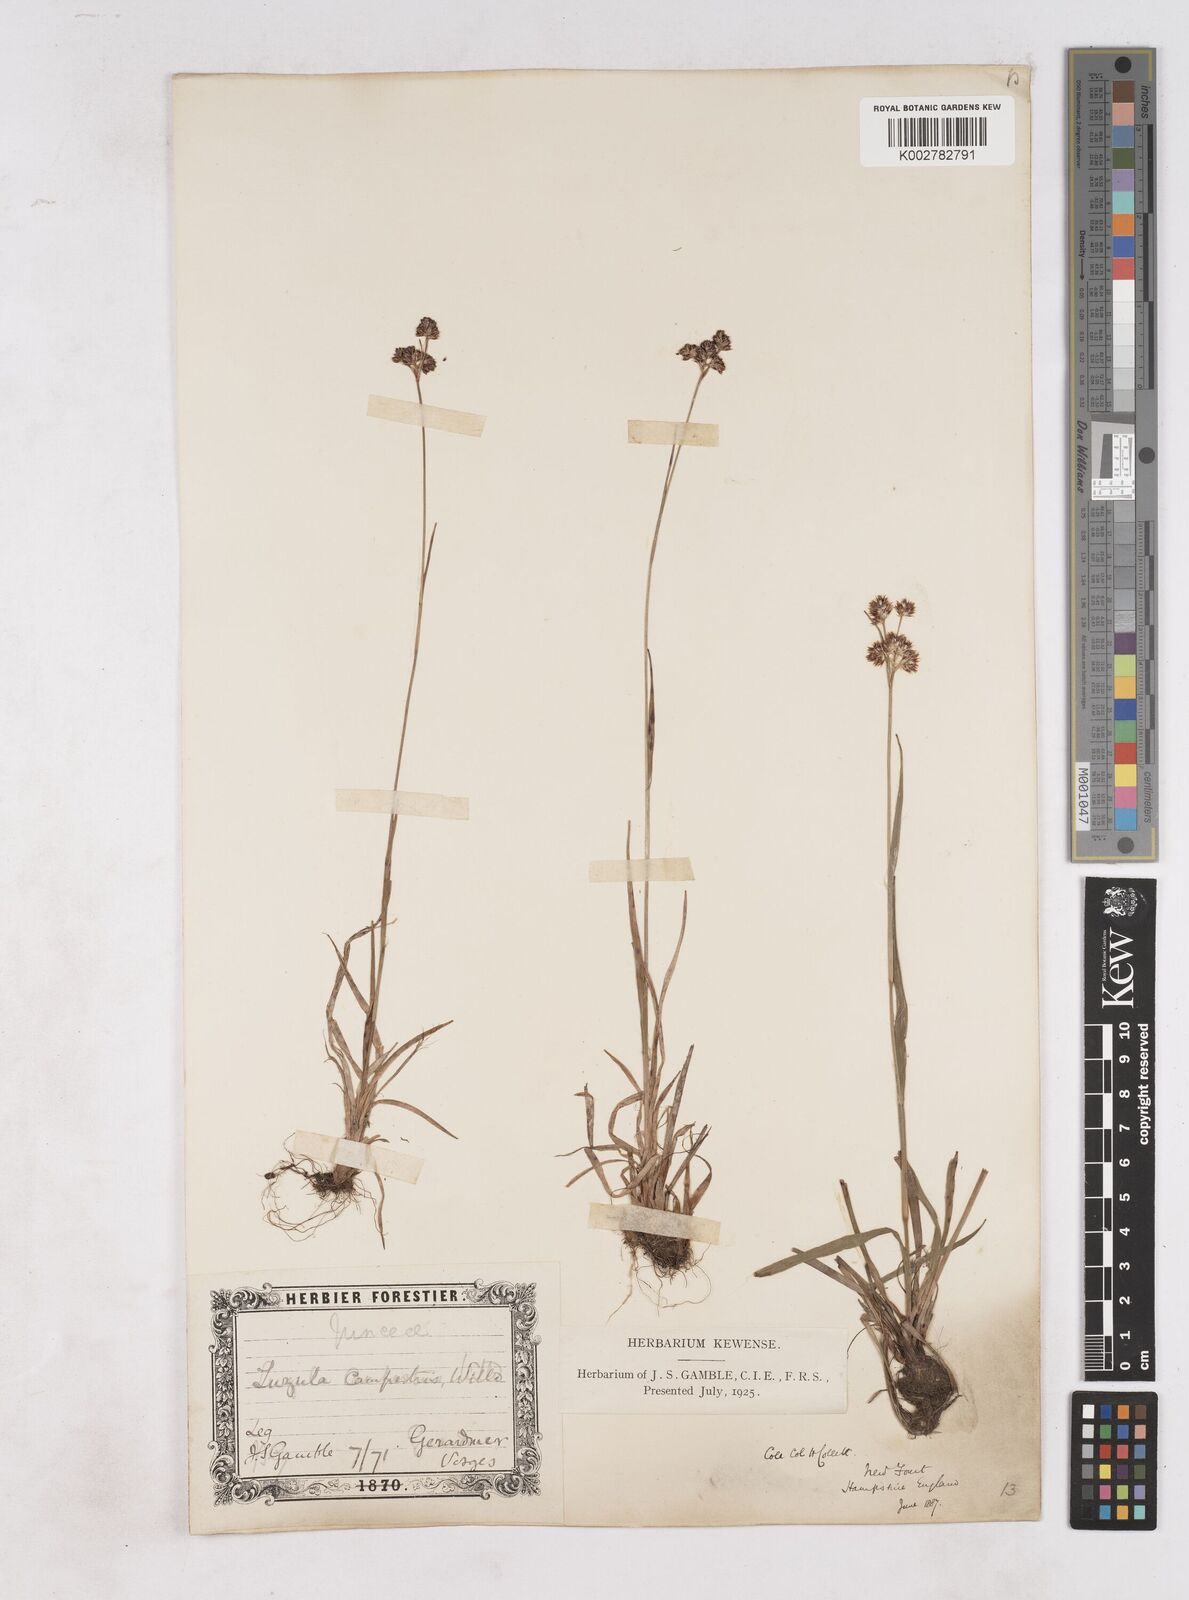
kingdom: Plantae
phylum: Tracheophyta
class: Liliopsida
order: Poales
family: Juncaceae
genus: Luzula
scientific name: Luzula campestris
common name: Field wood-rush
